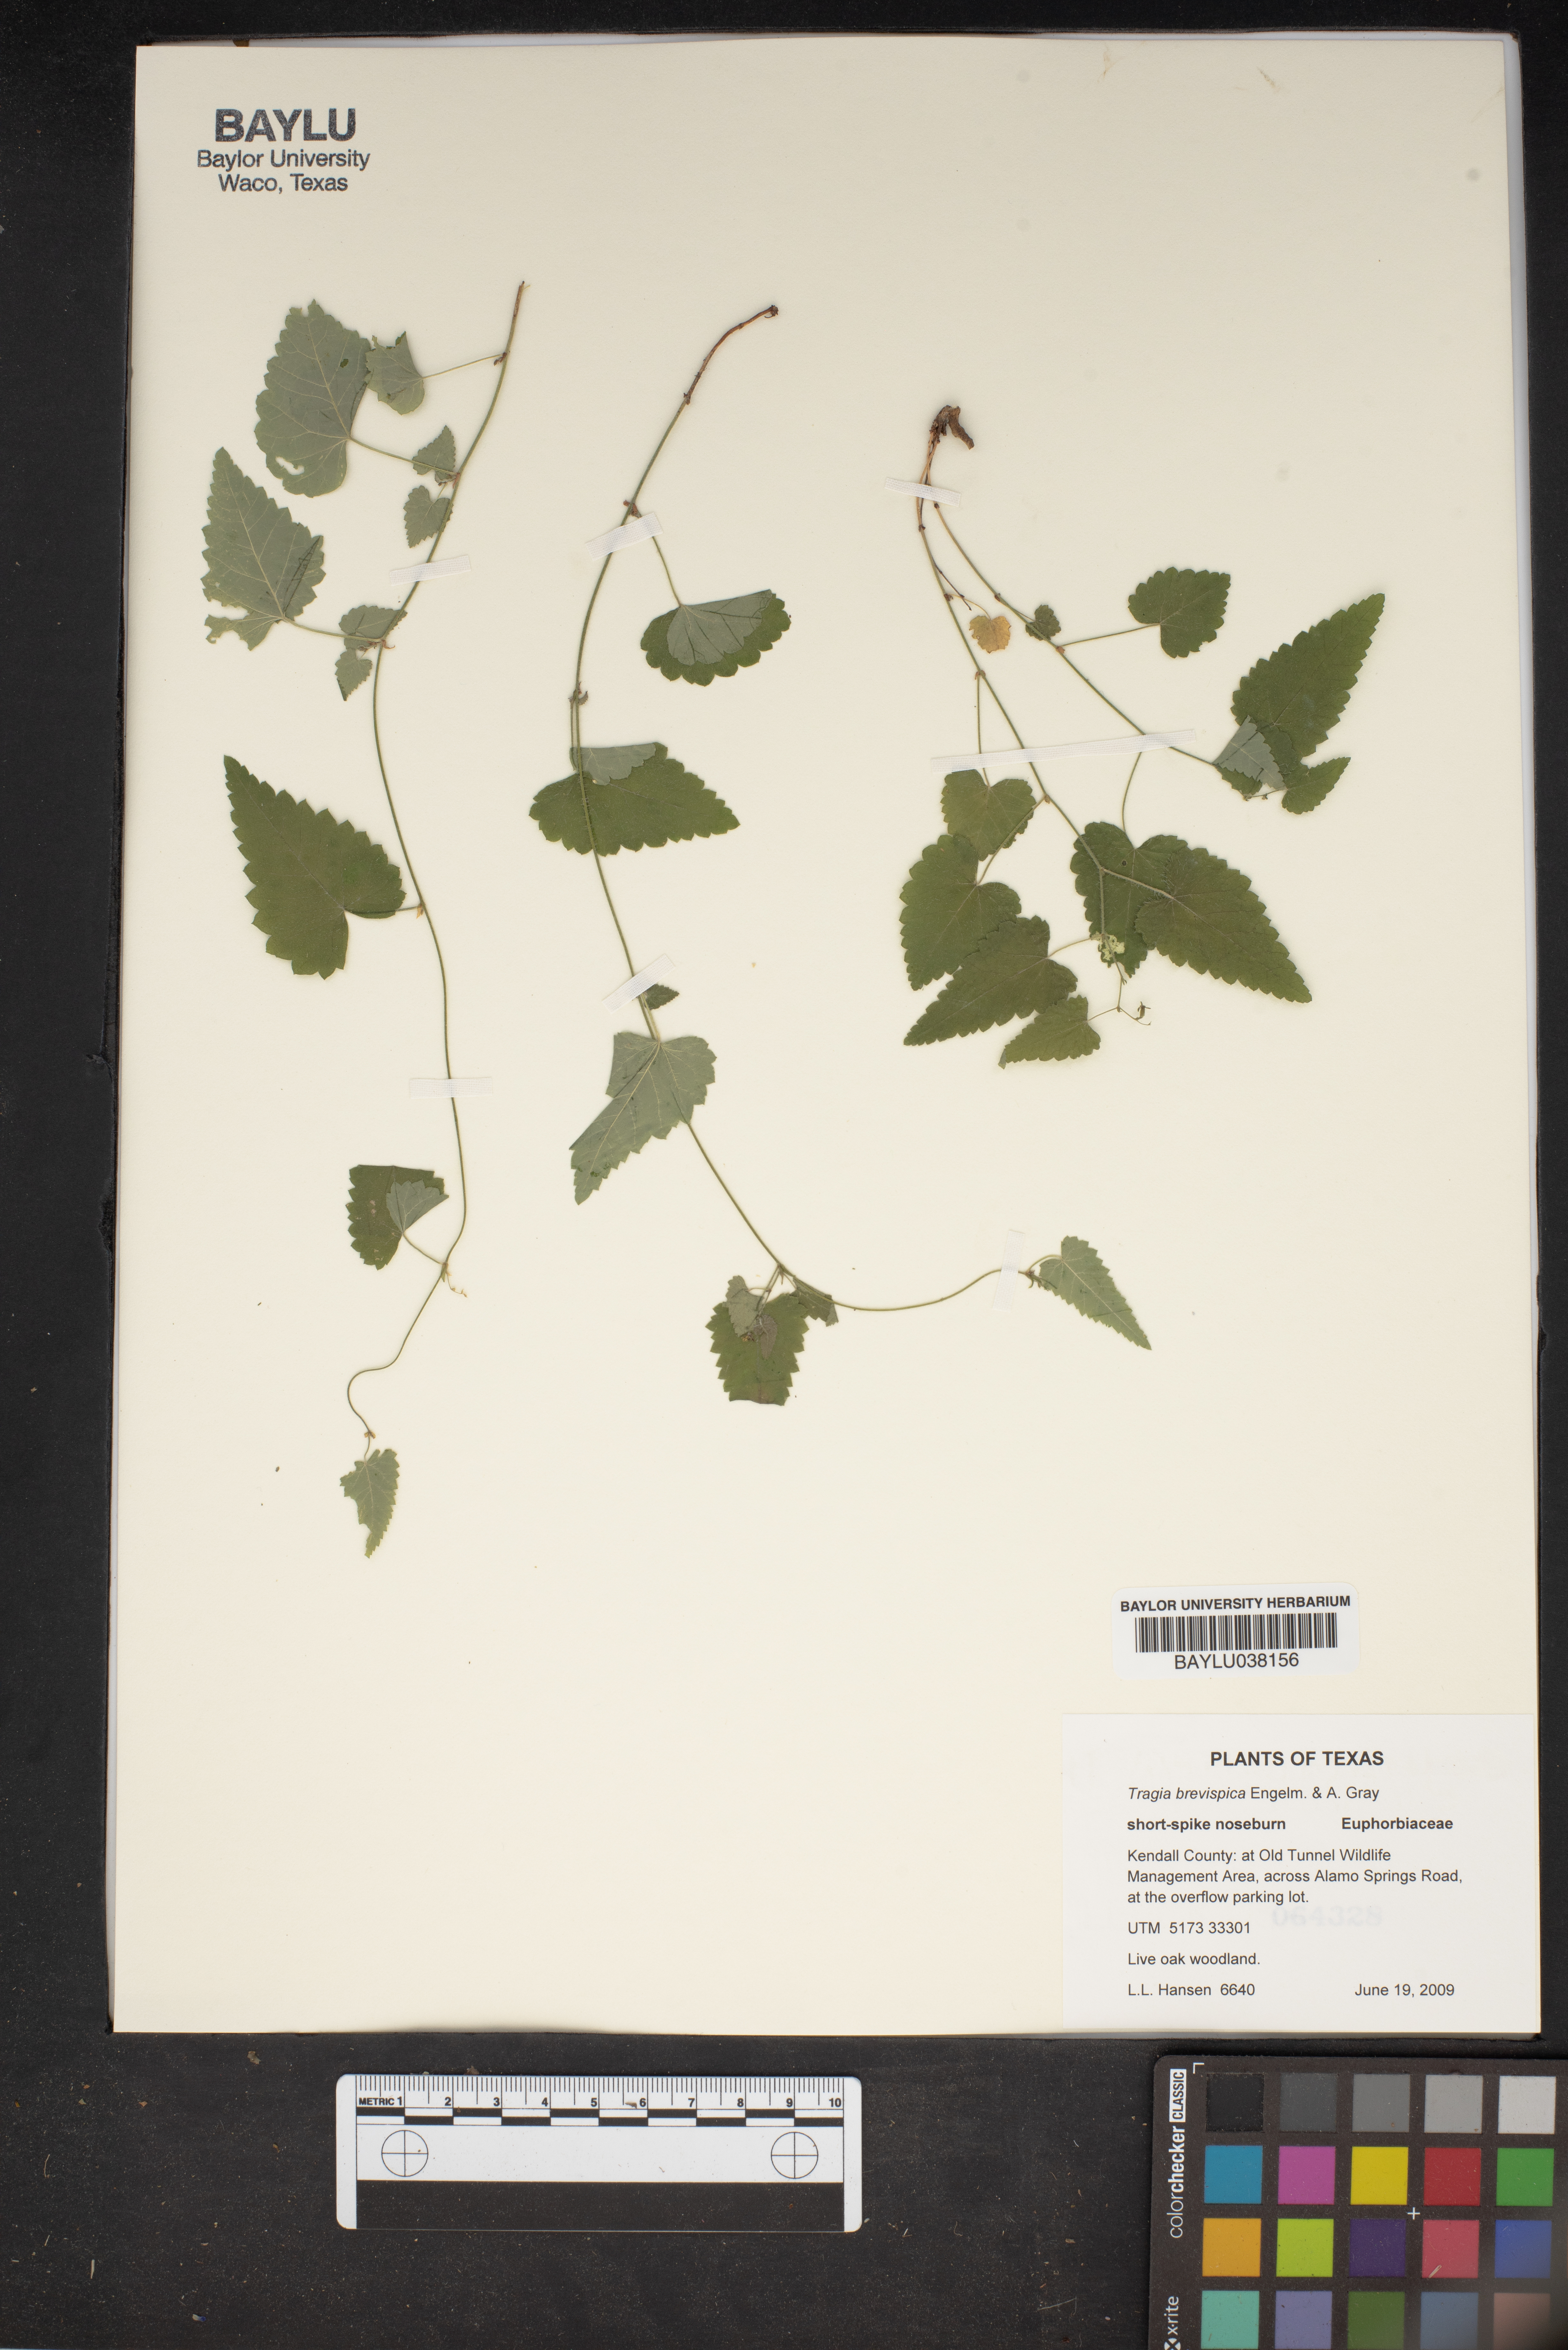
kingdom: Plantae
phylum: Tracheophyta
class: Magnoliopsida
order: Malpighiales
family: Euphorbiaceae
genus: Tragia
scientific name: Tragia brevispica
